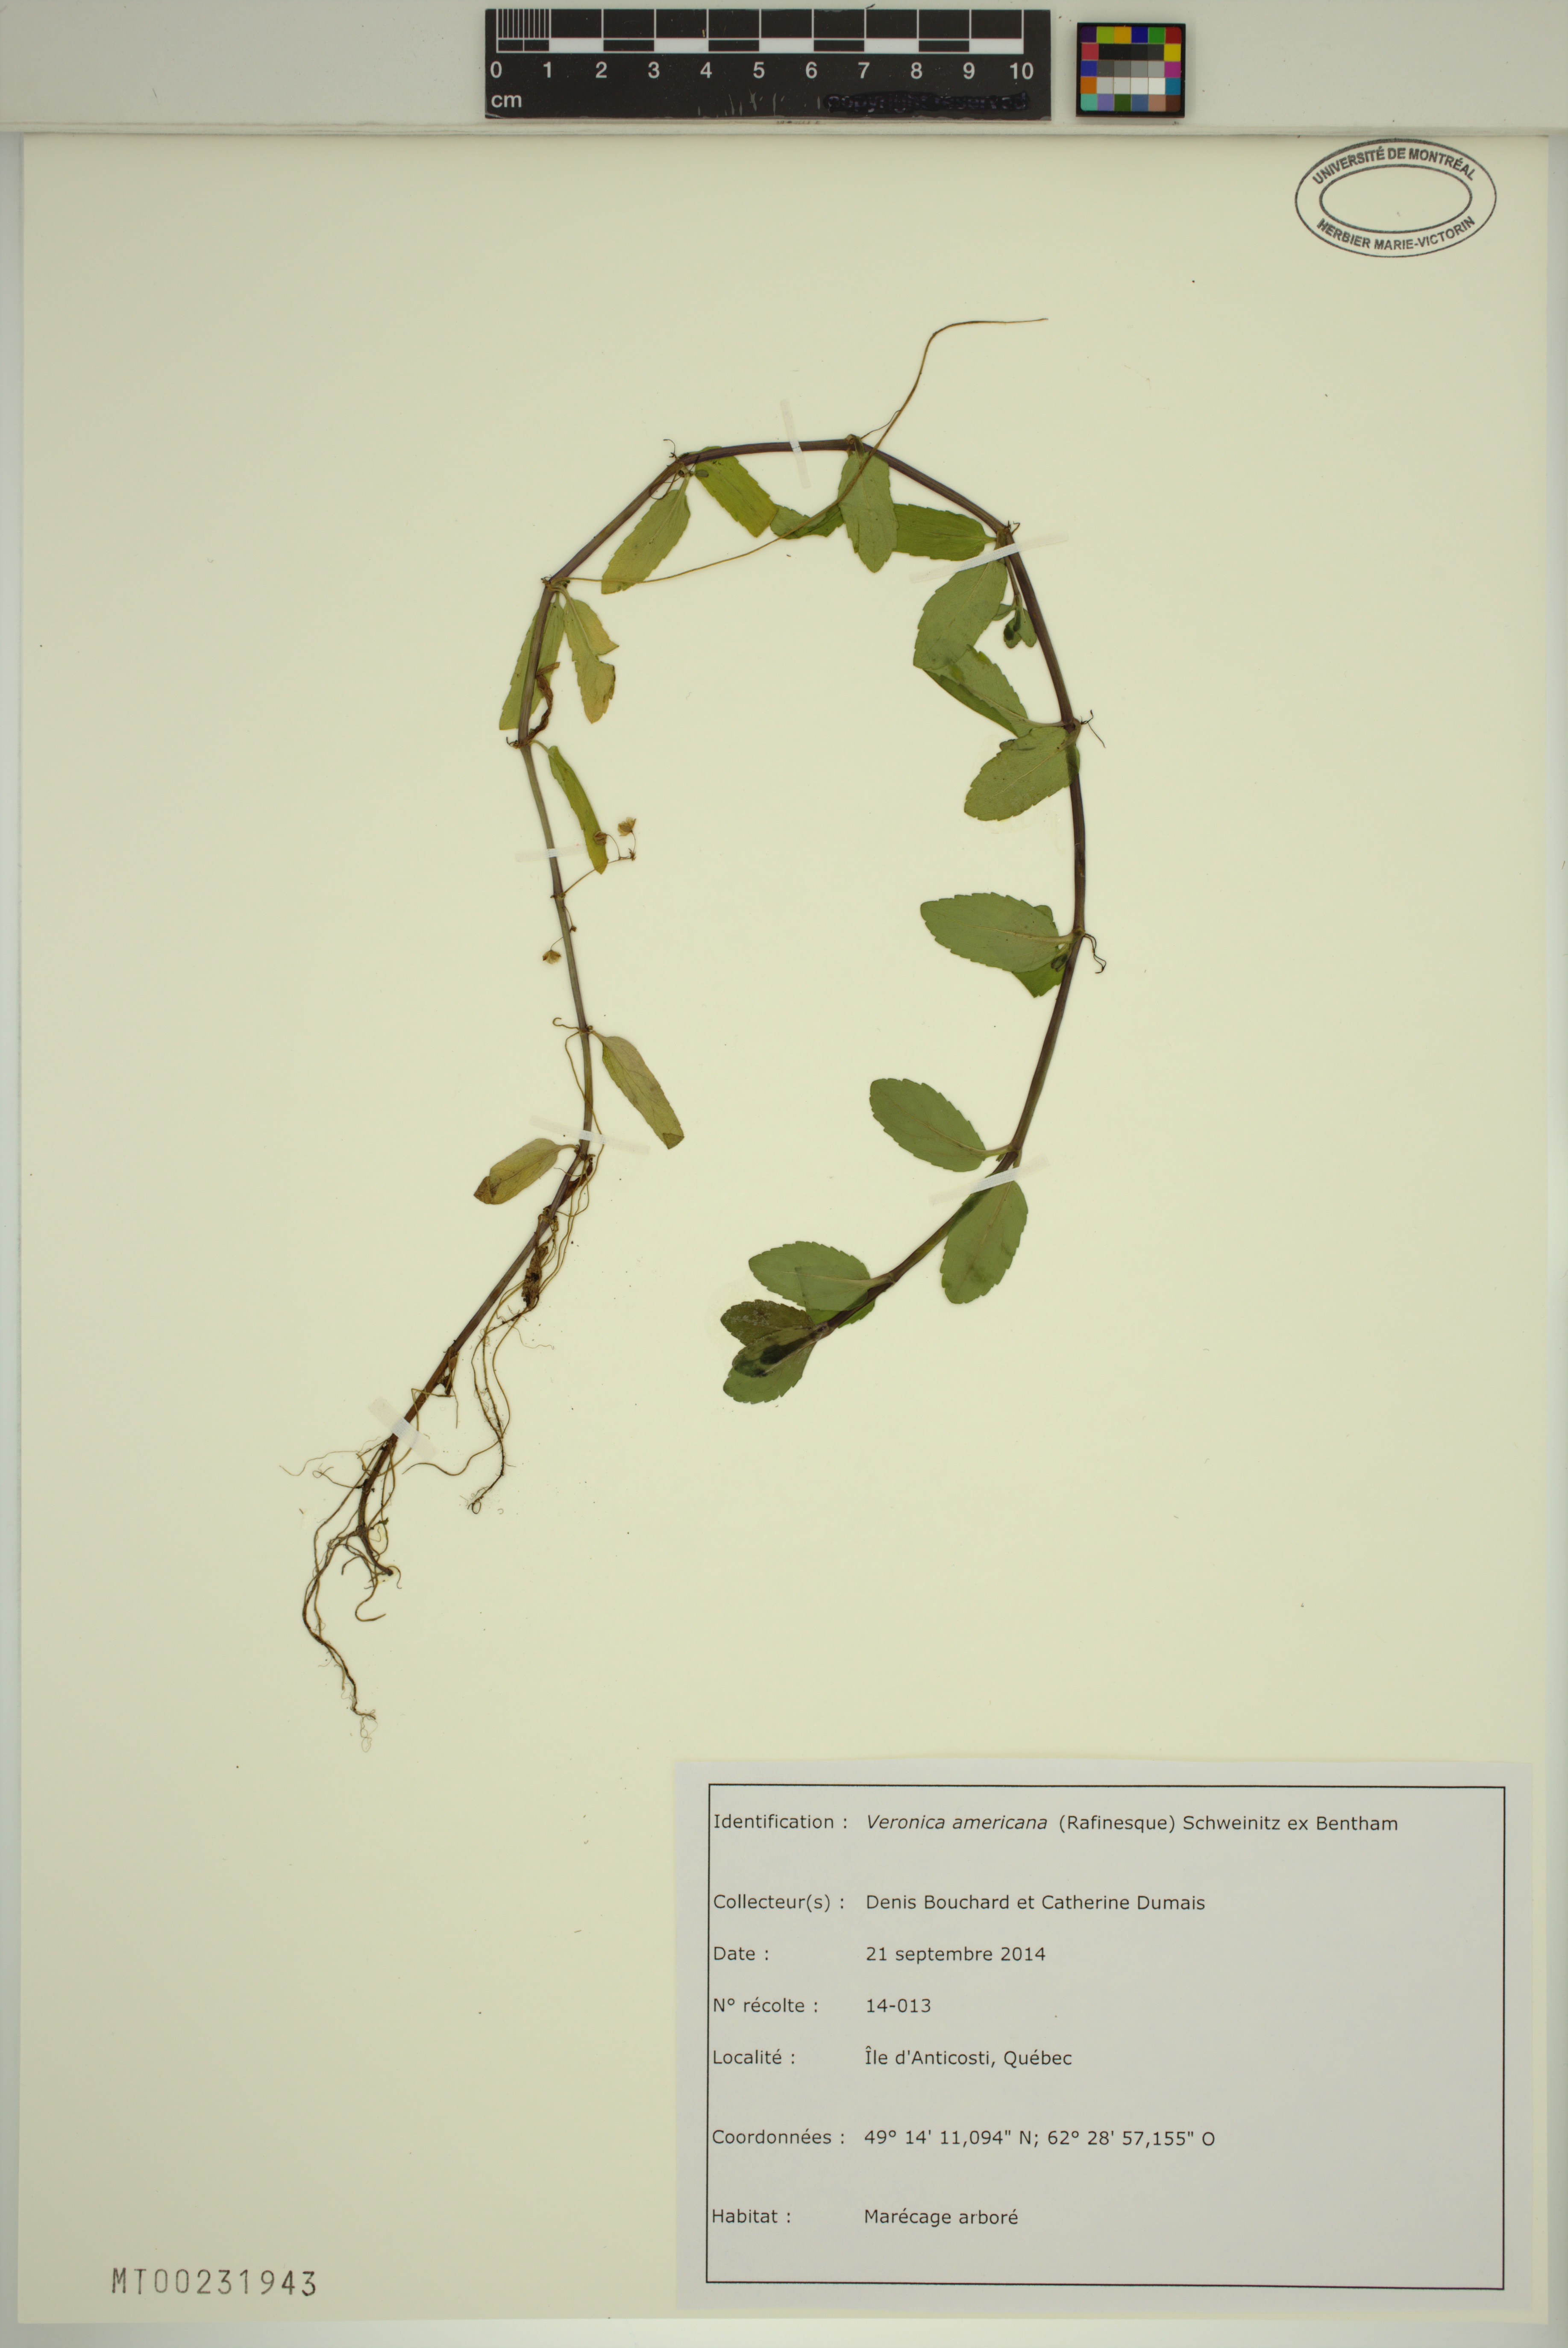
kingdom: Plantae
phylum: Tracheophyta
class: Magnoliopsida
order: Lamiales
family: Plantaginaceae
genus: Veronica
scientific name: Veronica americana
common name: American brooklime
